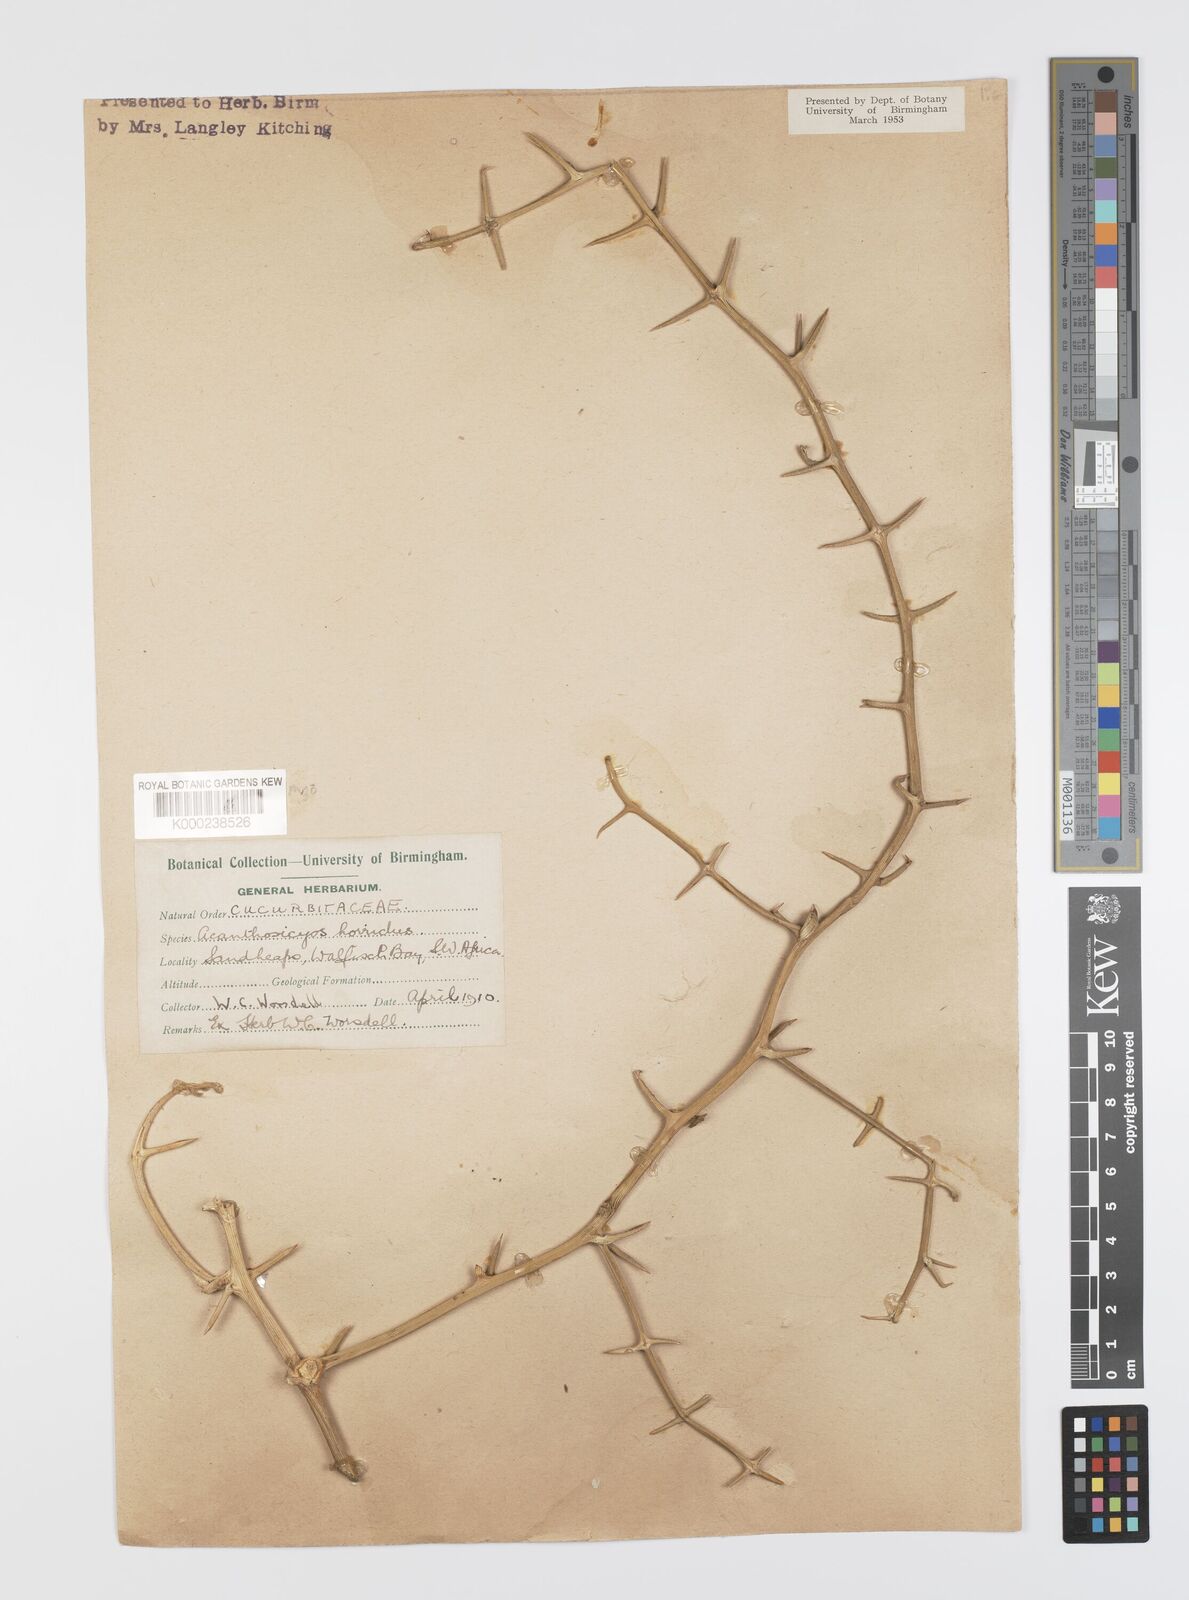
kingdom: Plantae
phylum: Tracheophyta
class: Magnoliopsida
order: Cucurbitales
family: Cucurbitaceae
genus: Acanthosicyos
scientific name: Acanthosicyos horridus
